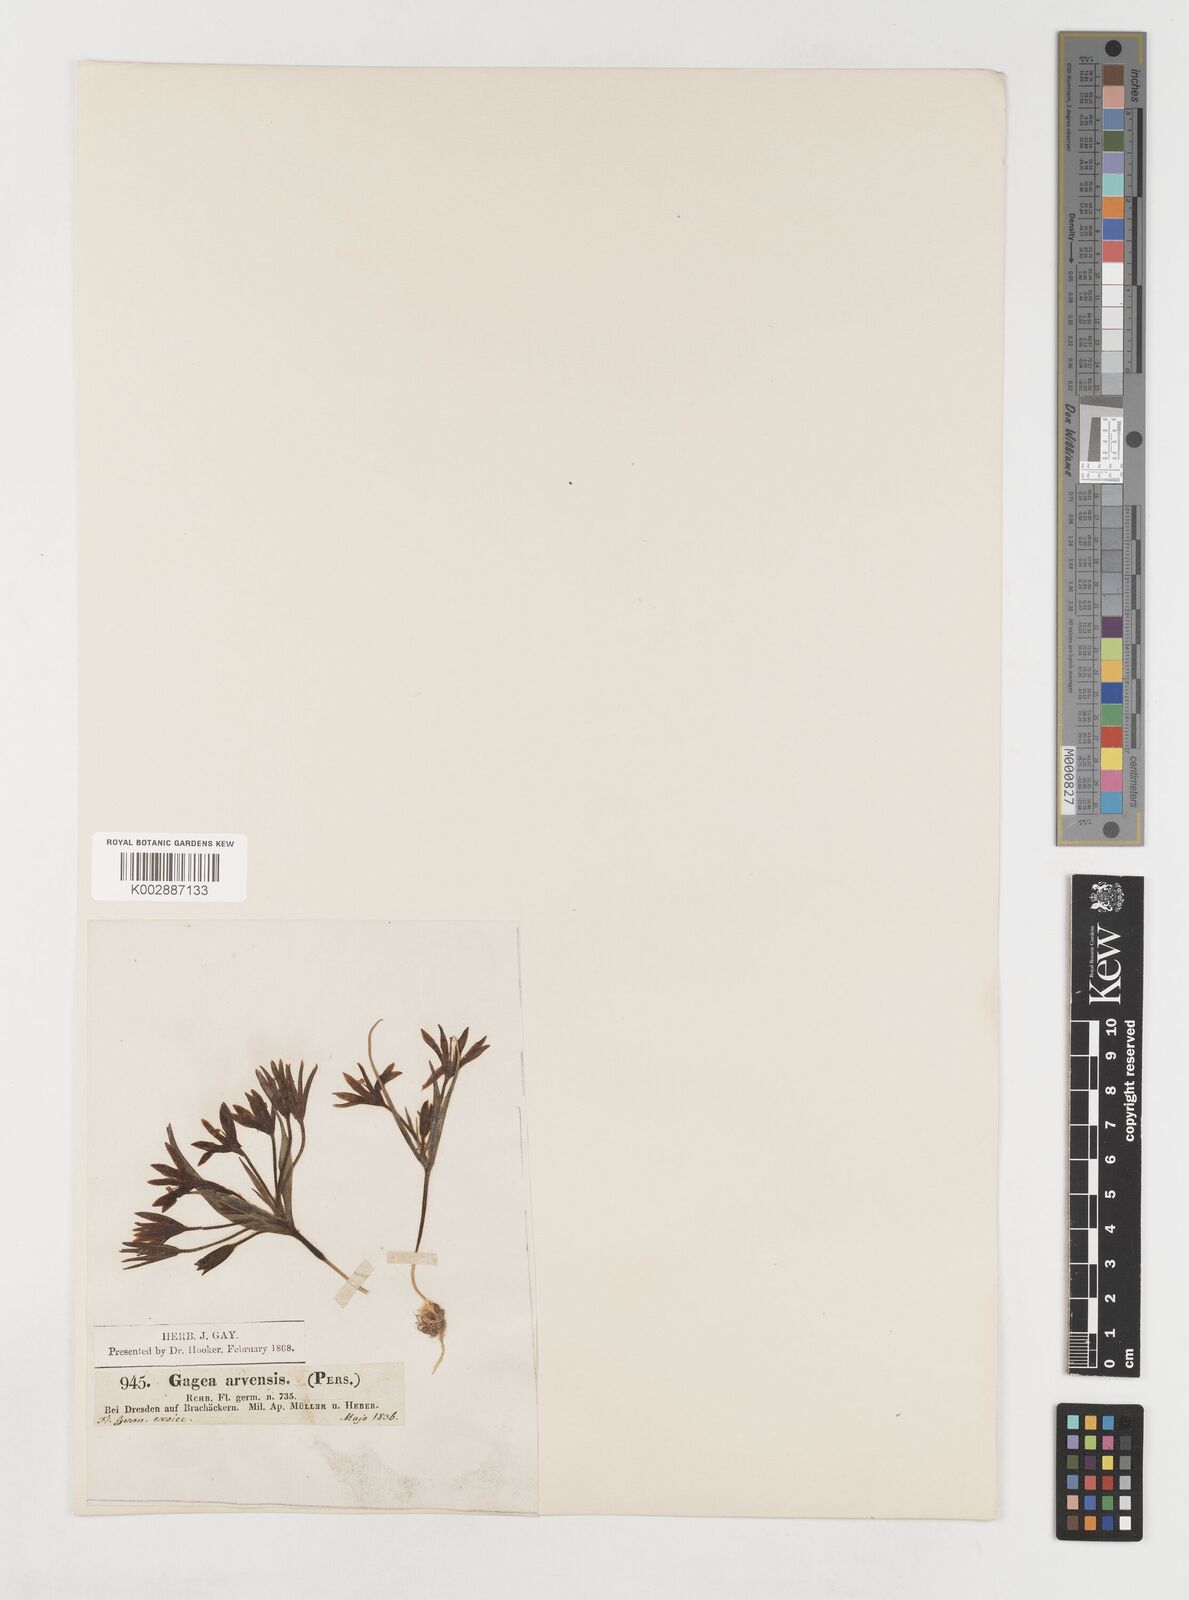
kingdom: Plantae
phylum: Tracheophyta
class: Liliopsida
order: Liliales
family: Liliaceae
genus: Gagea
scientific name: Gagea minima
